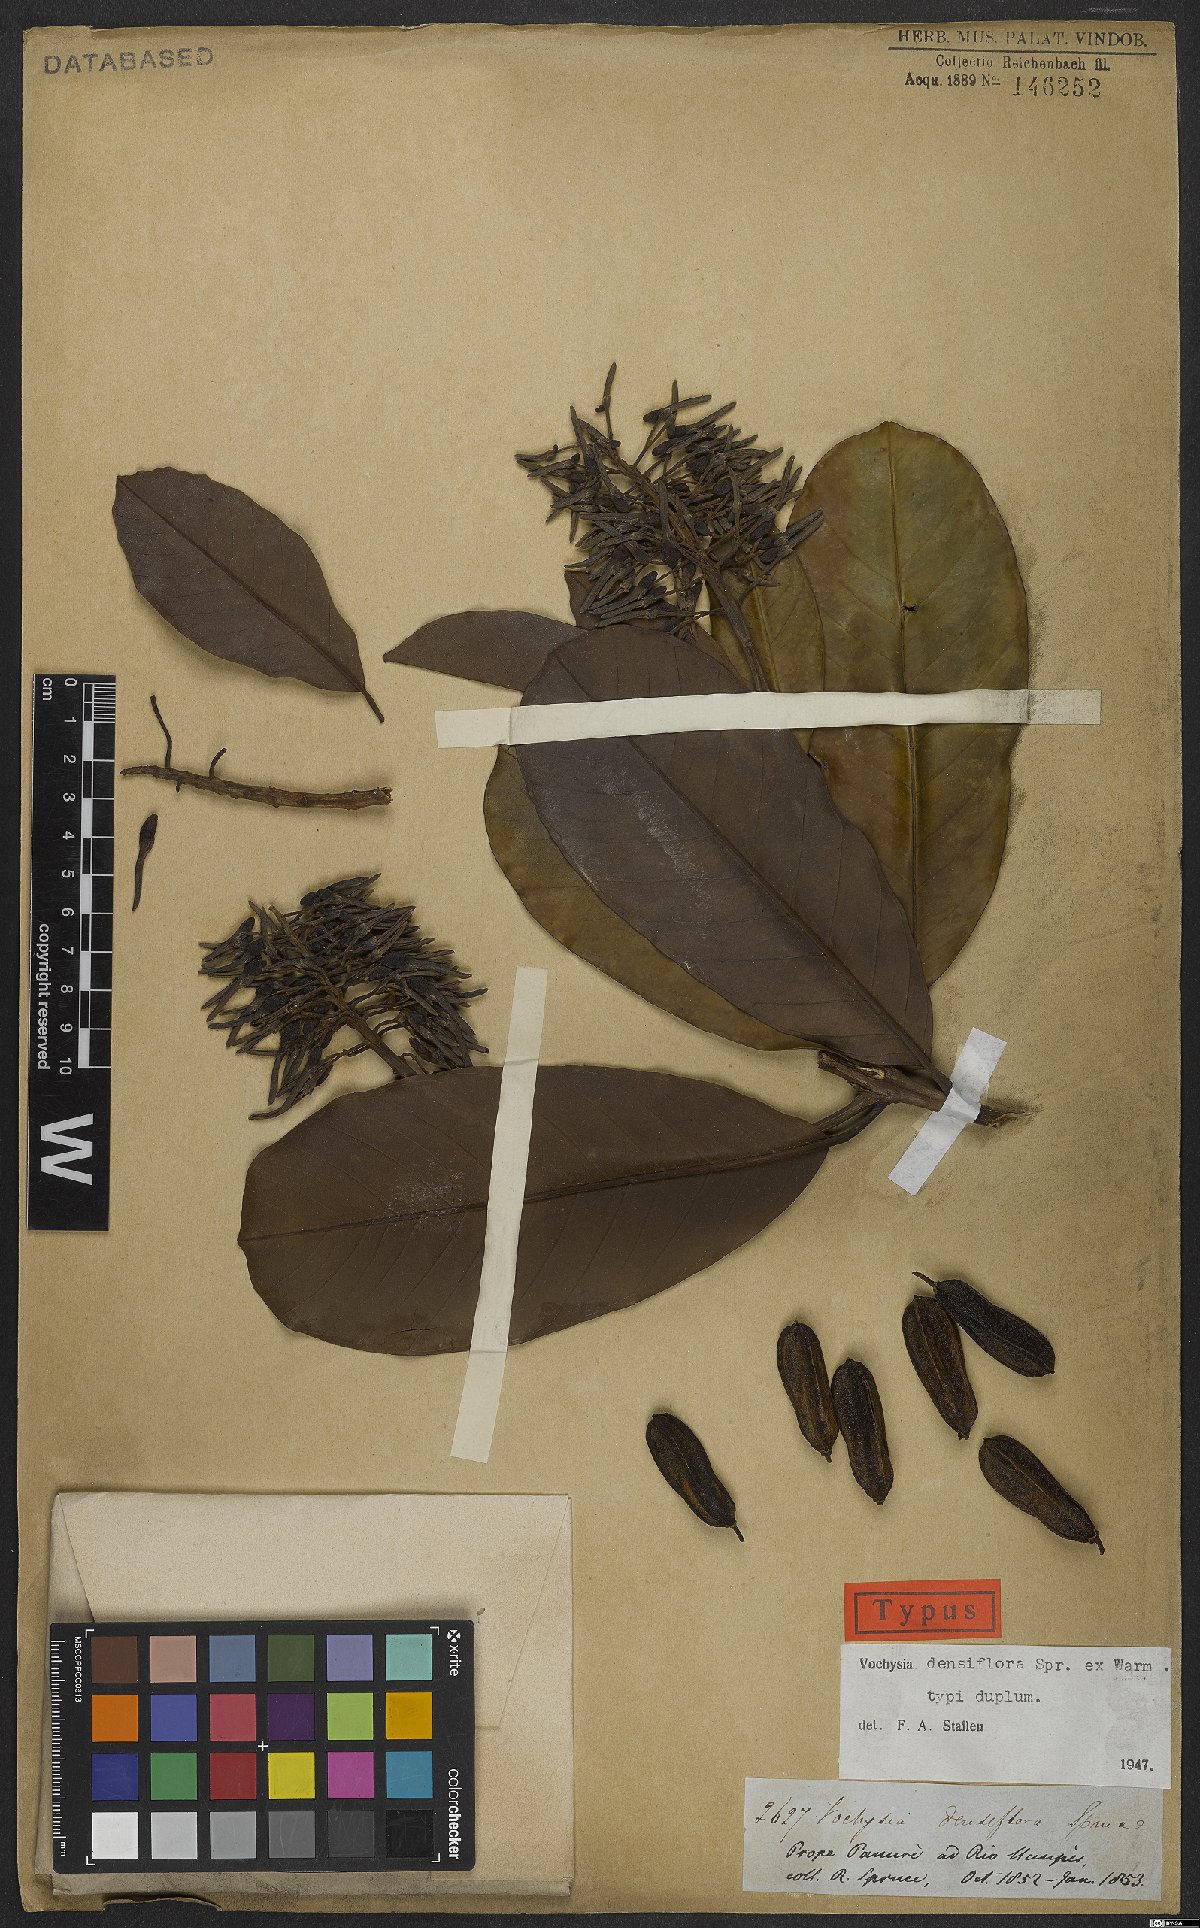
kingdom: Plantae
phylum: Tracheophyta
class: Magnoliopsida
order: Myrtales
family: Vochysiaceae
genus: Vochysia
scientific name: Vochysia densiflora
